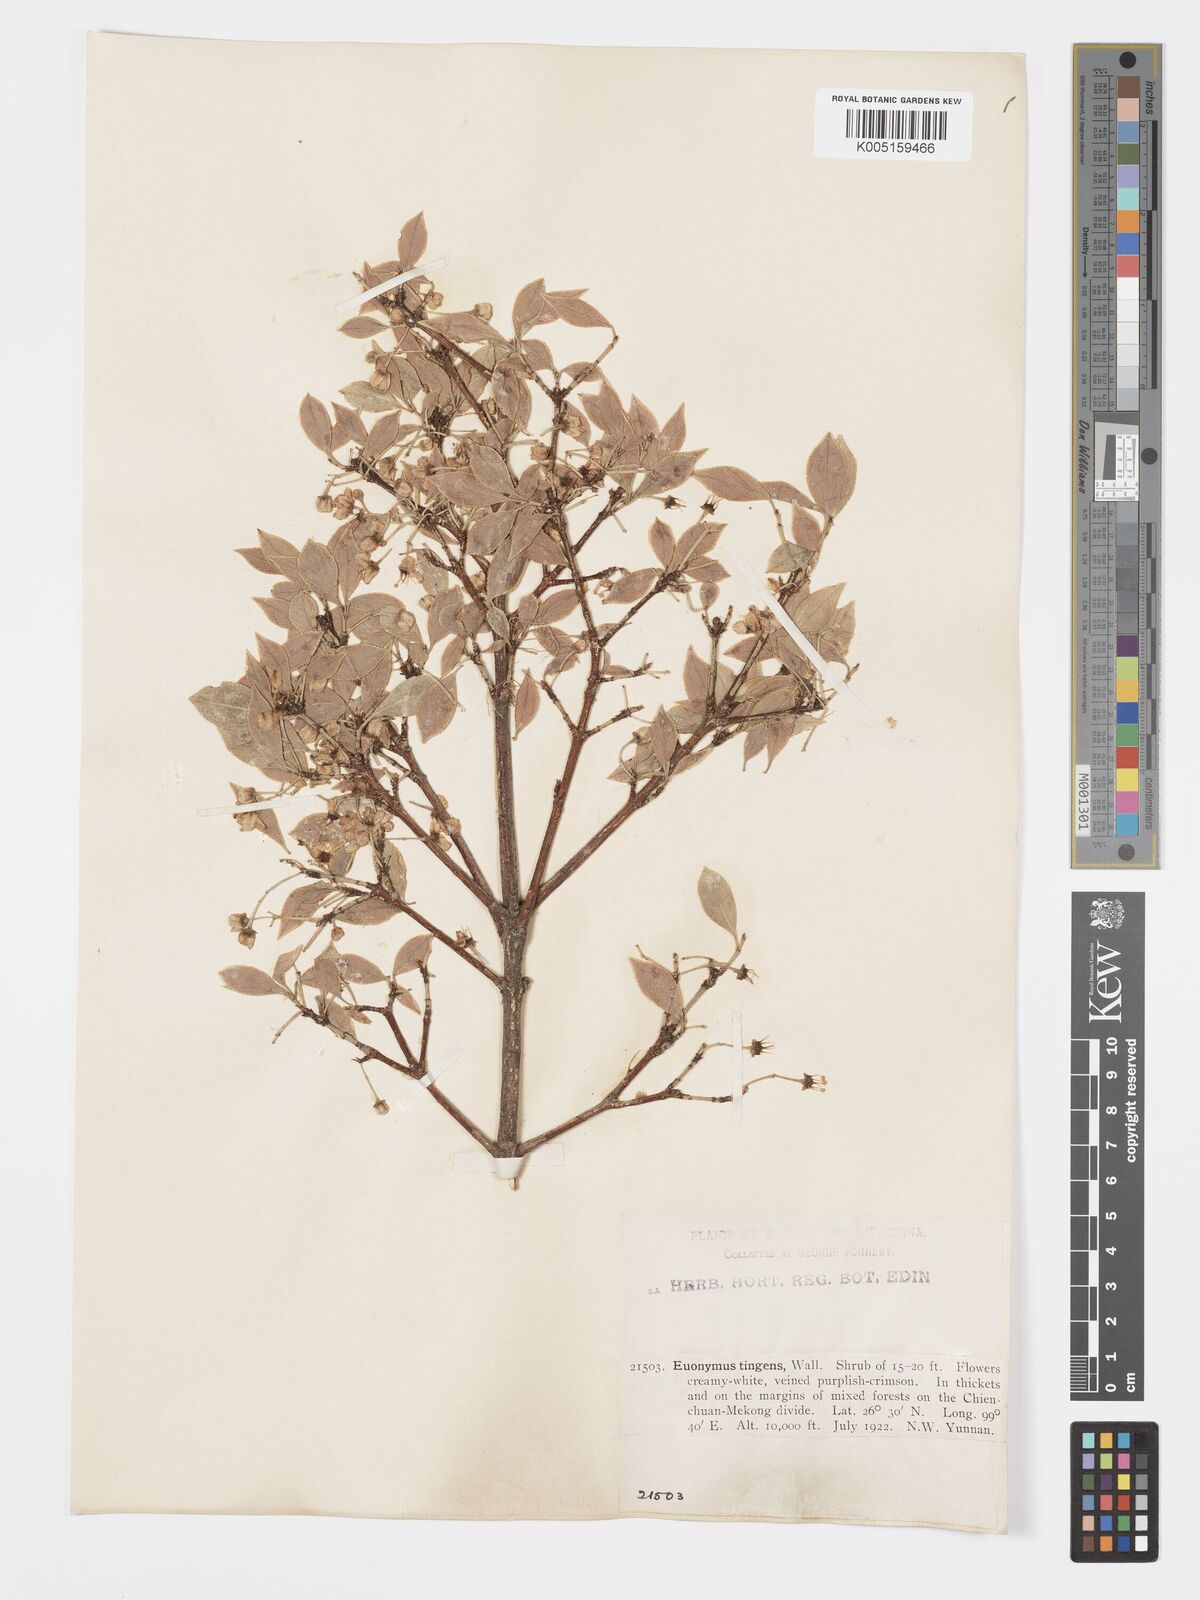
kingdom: Plantae
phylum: Tracheophyta
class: Magnoliopsida
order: Celastrales
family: Celastraceae
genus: Euonymus
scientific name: Euonymus tingens
